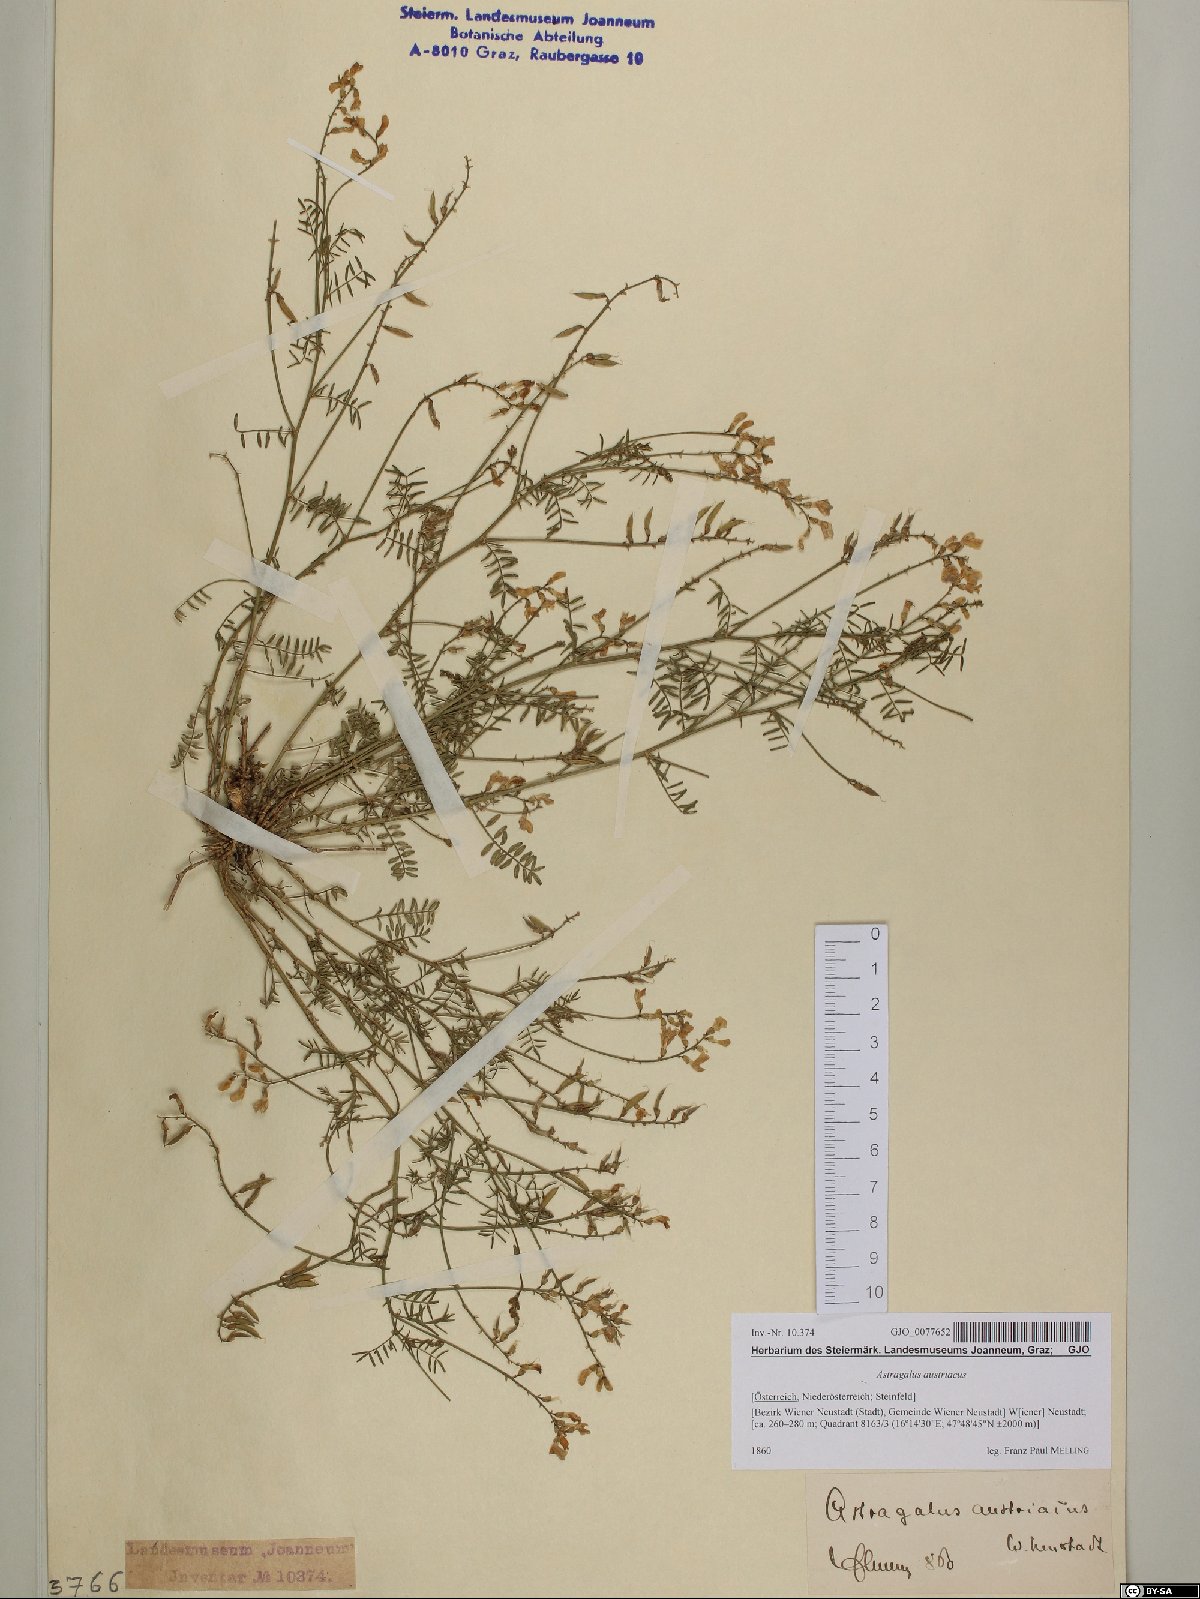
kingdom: Plantae
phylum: Tracheophyta
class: Magnoliopsida
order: Fabales
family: Fabaceae
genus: Astragalus
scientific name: Astragalus austriacus
